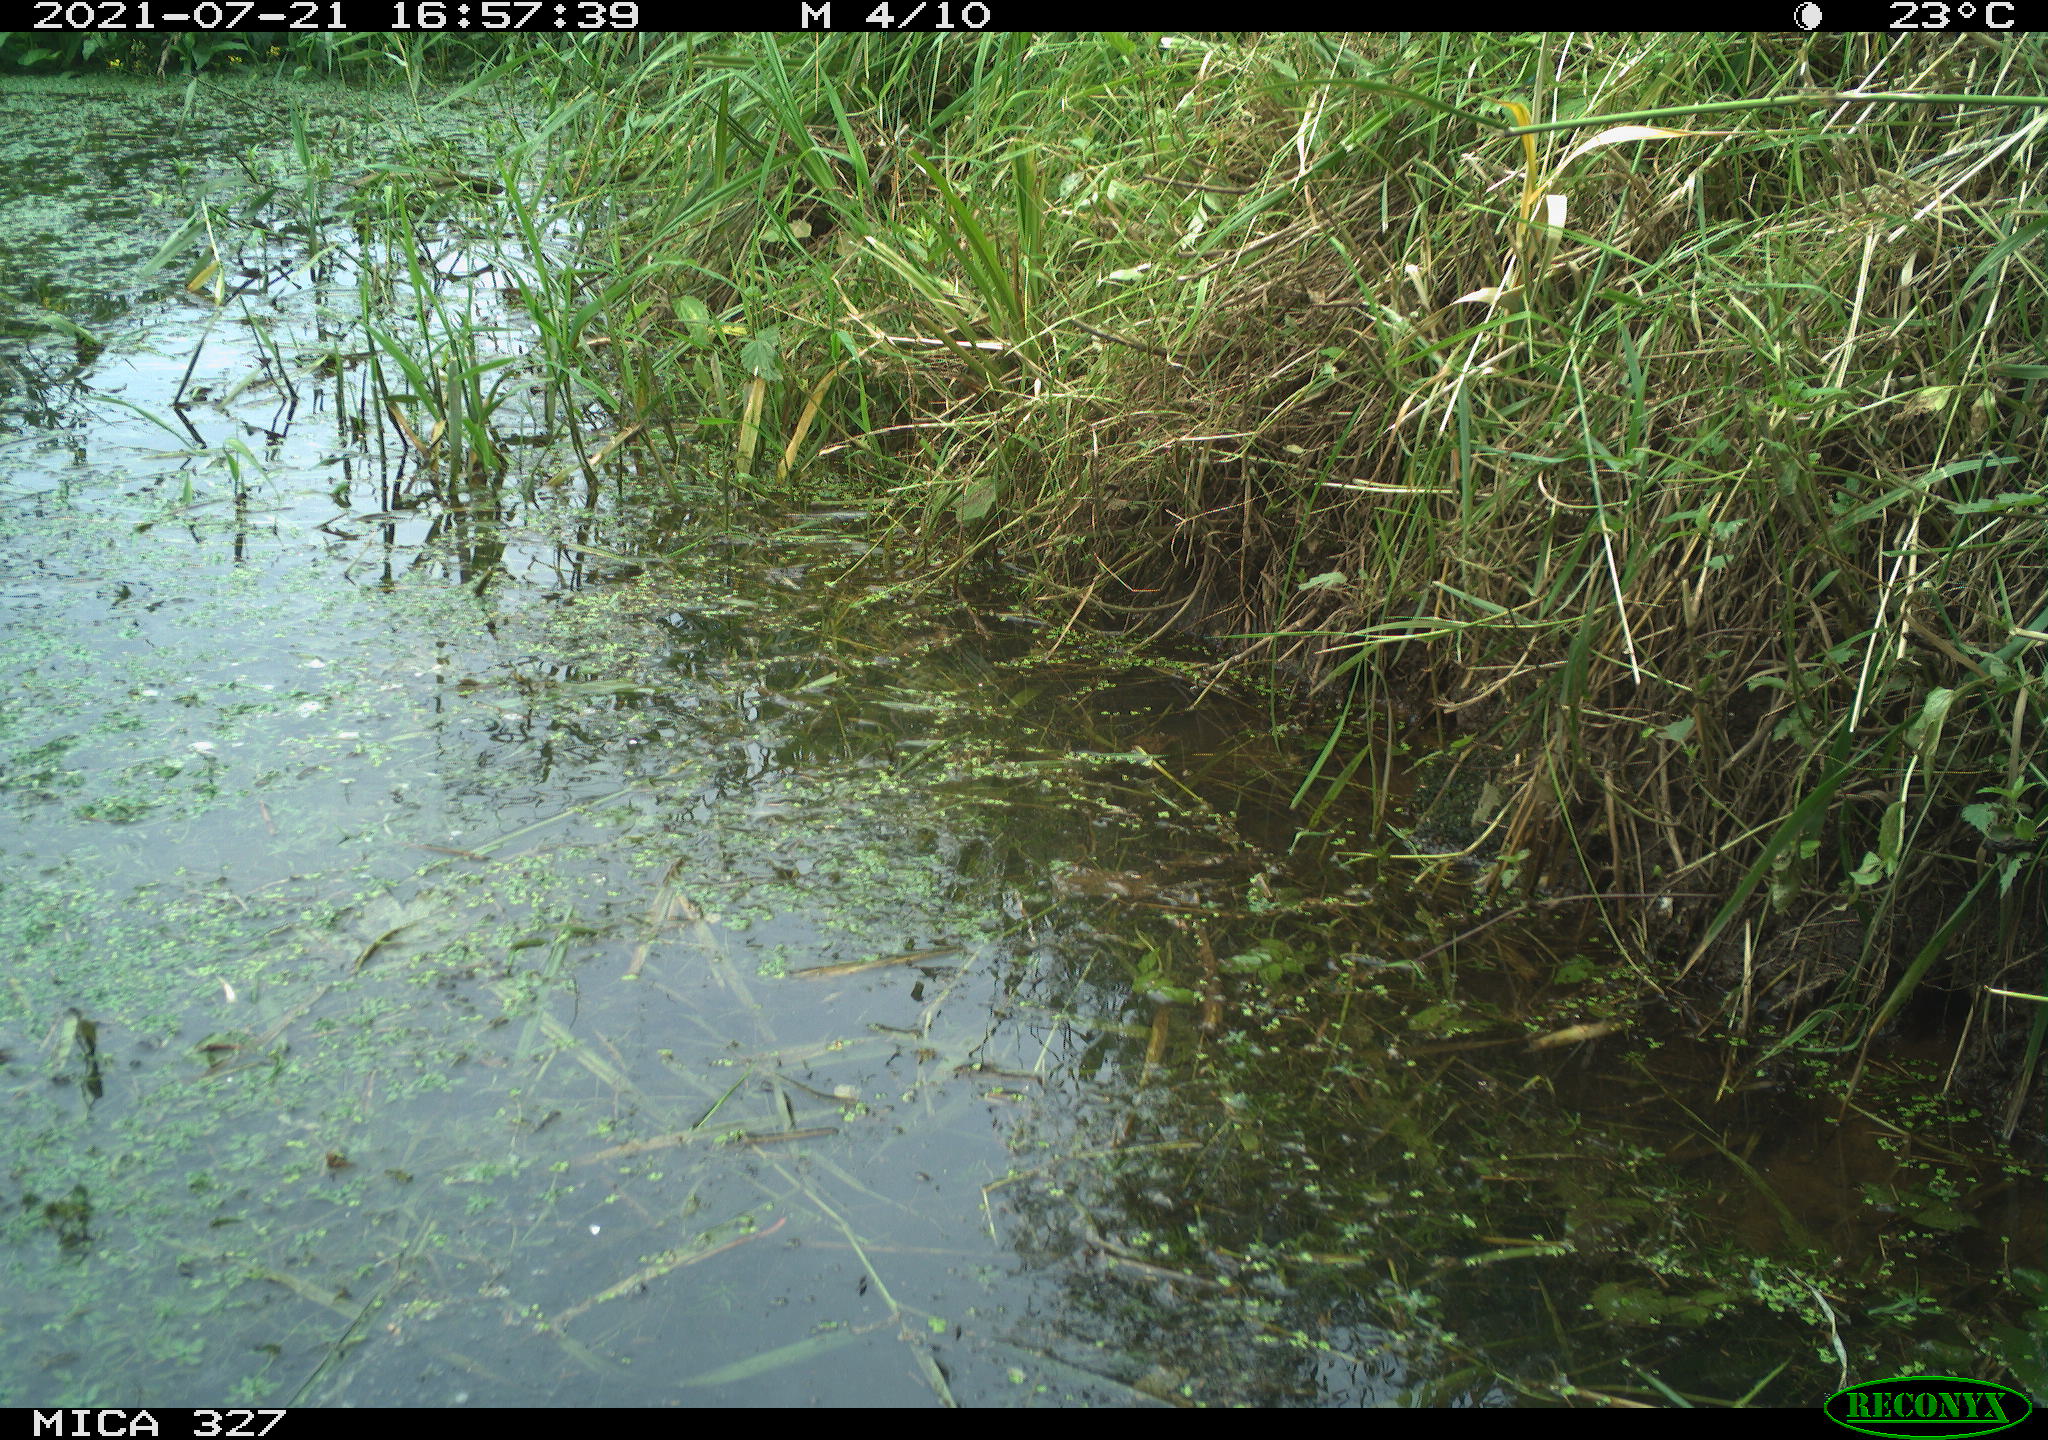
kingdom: Animalia
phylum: Chordata
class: Mammalia
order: Rodentia
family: Cricetidae
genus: Ondatra
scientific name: Ondatra zibethicus
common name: Muskrat
